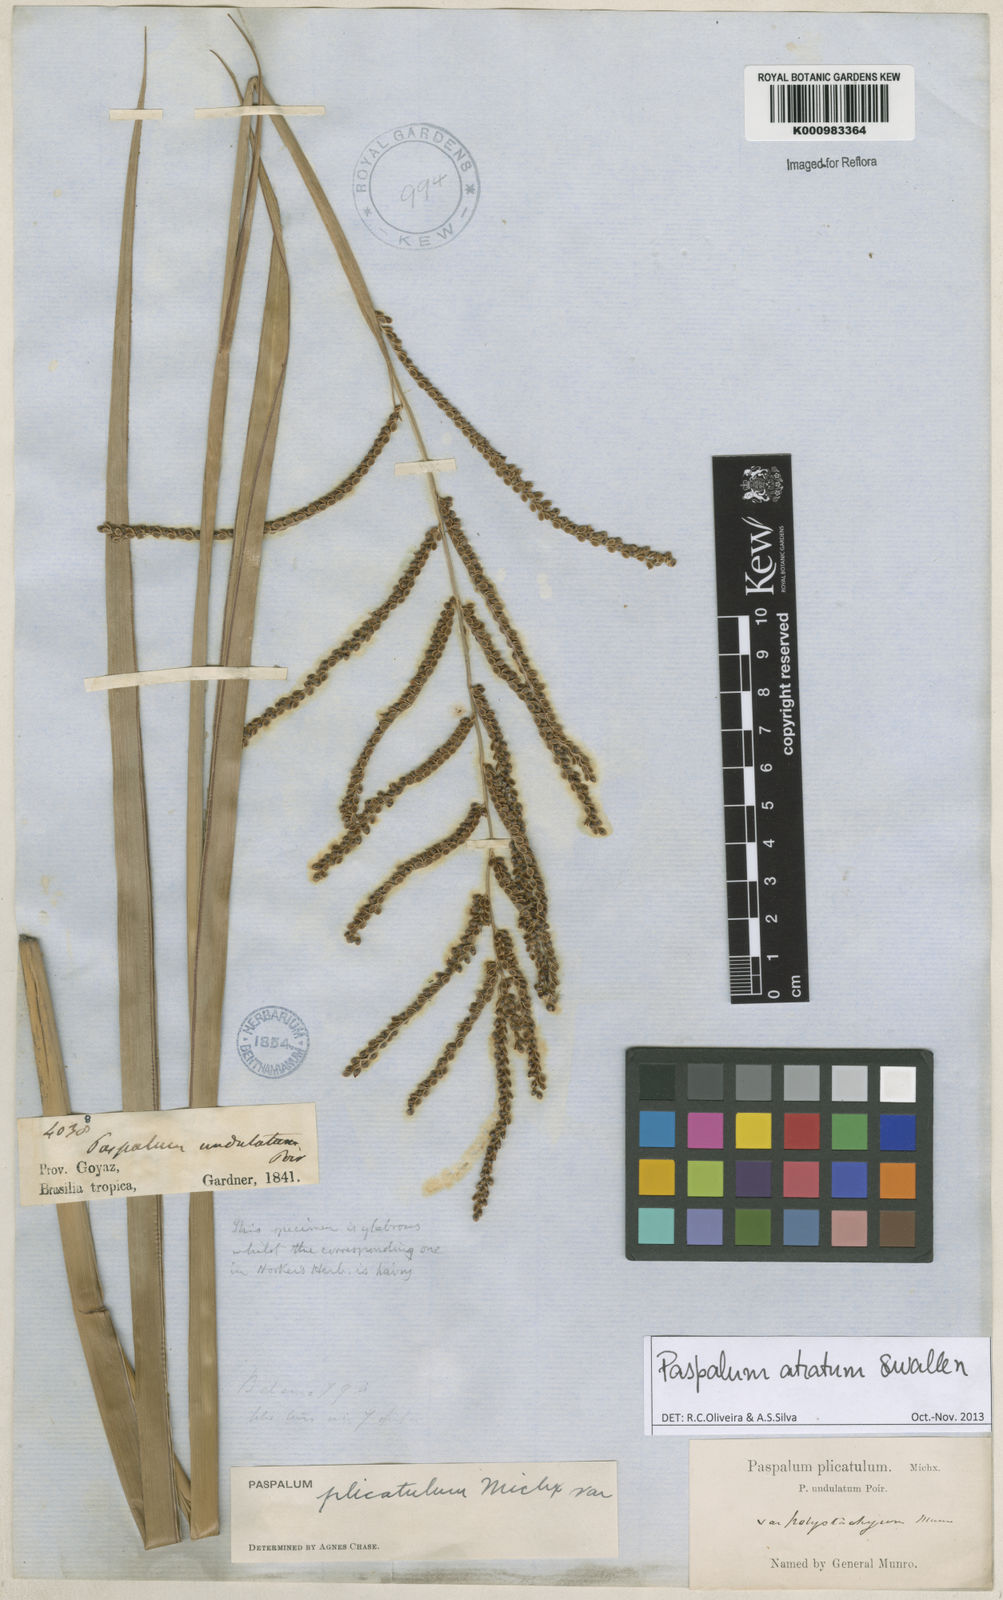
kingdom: Plantae
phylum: Tracheophyta
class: Liliopsida
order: Poales
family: Poaceae
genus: Paspalum
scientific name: Paspalum atratum
